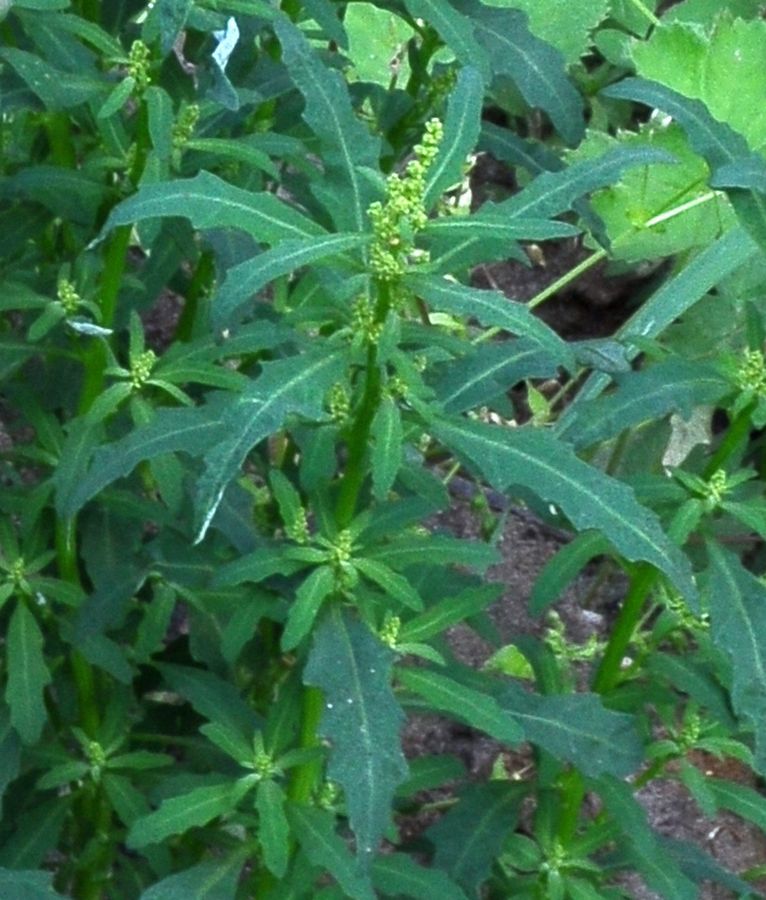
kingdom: Plantae
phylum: Tracheophyta
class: Magnoliopsida
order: Caryophyllales
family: Amaranthaceae
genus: Oxybasis
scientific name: Oxybasis glauca
